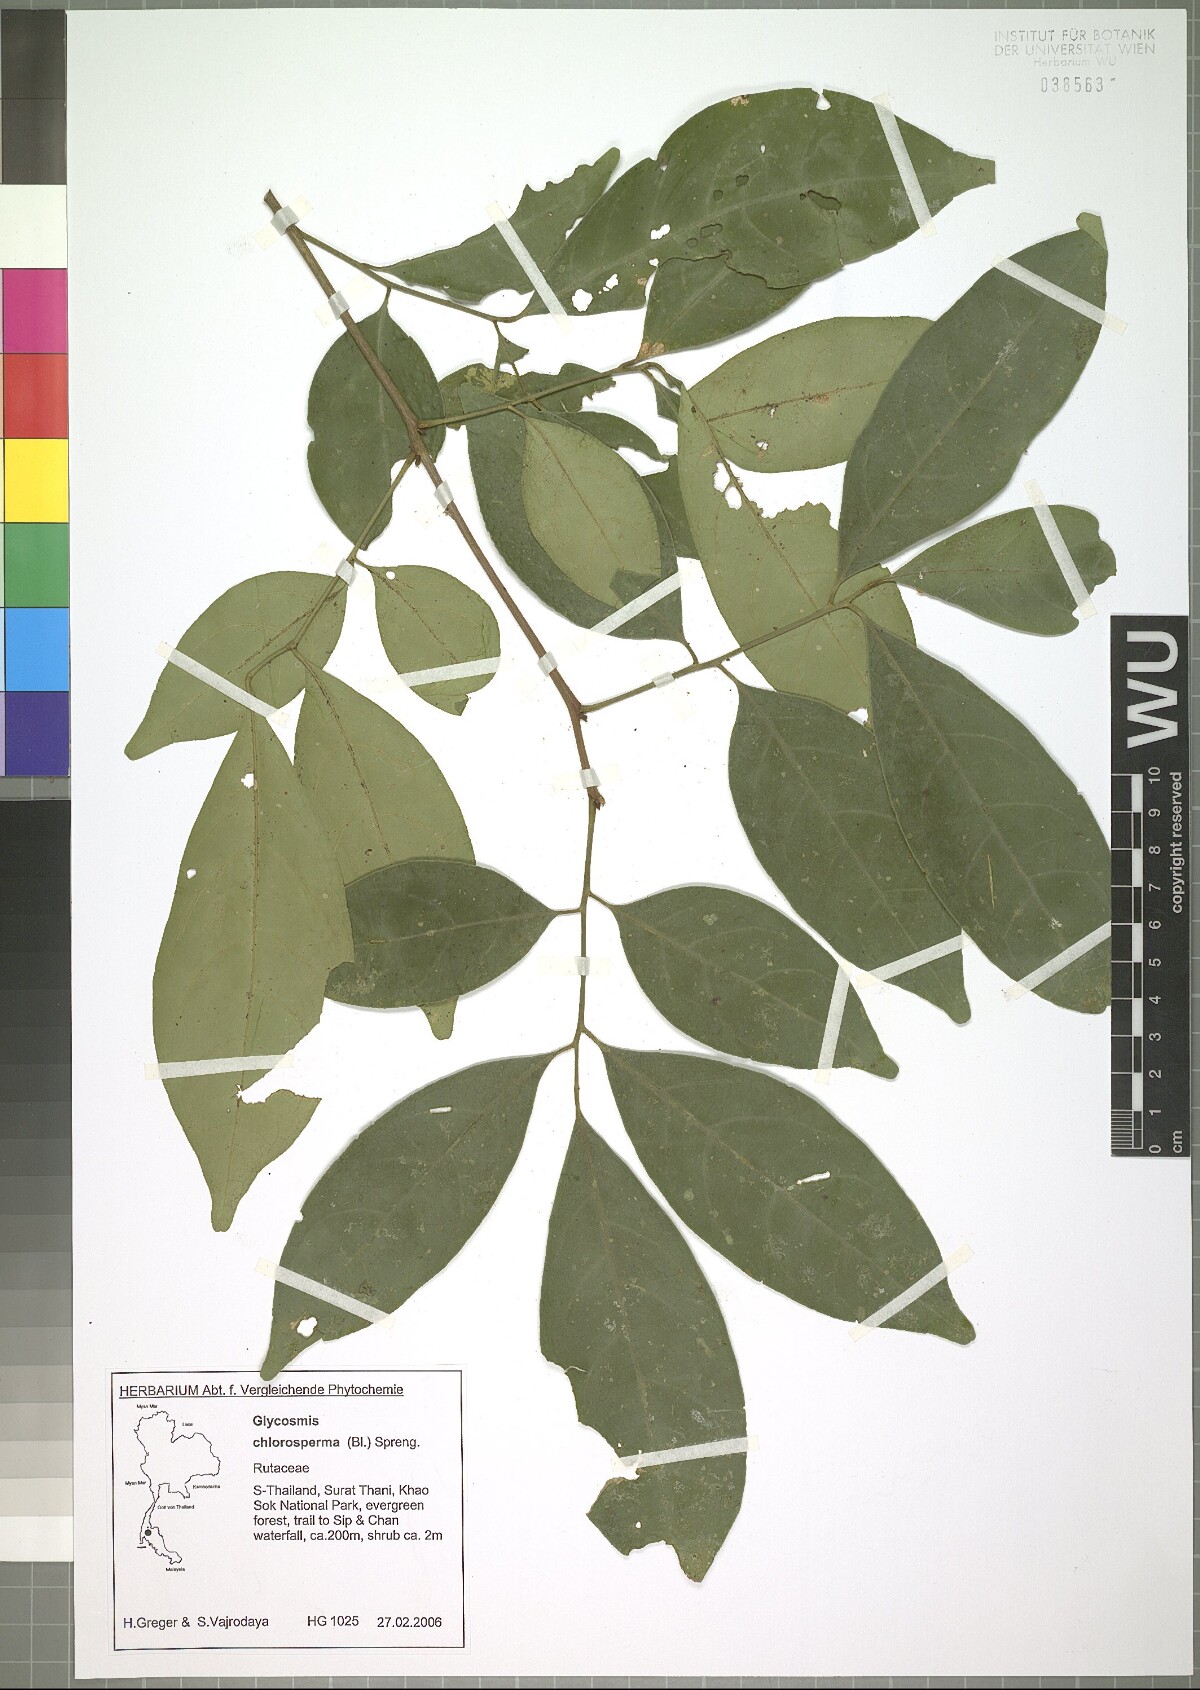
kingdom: Plantae
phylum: Tracheophyta
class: Magnoliopsida
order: Sapindales
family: Rutaceae
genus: Glycosmis
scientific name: Glycosmis chlorosperma
